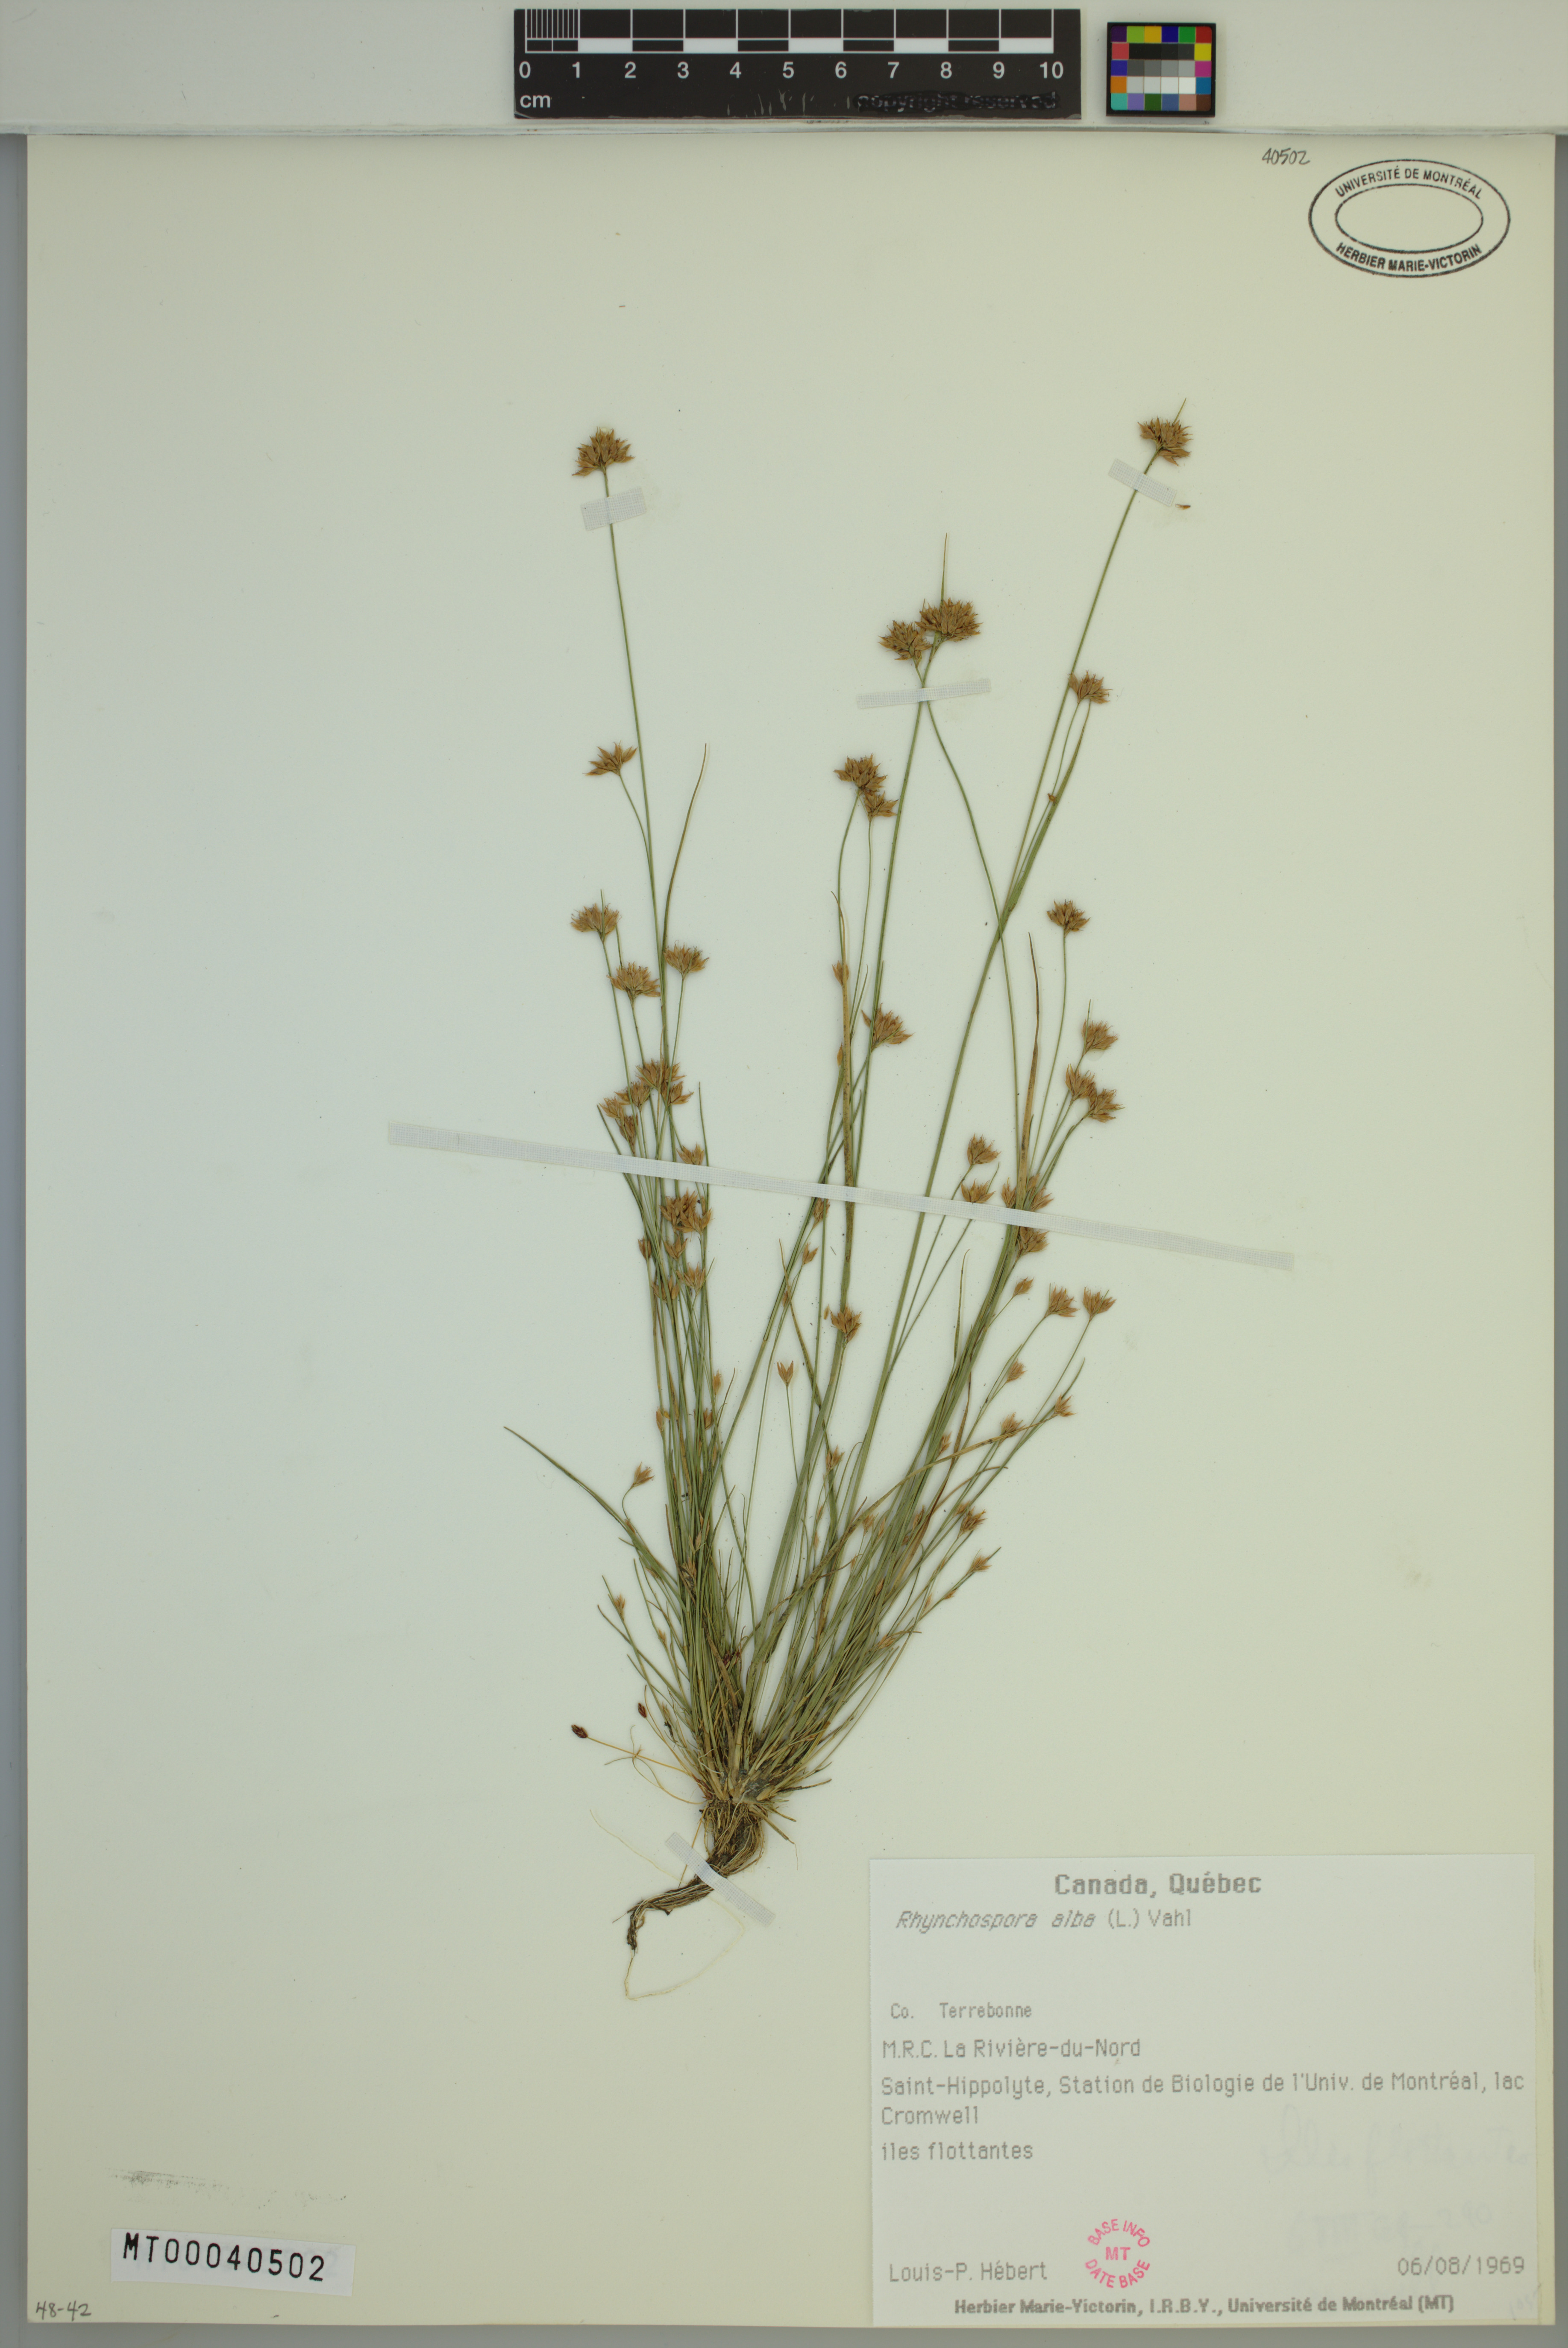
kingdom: Plantae
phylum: Tracheophyta
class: Liliopsida
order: Poales
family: Cyperaceae
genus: Rhynchospora
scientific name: Rhynchospora alba
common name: White beak-sedge
